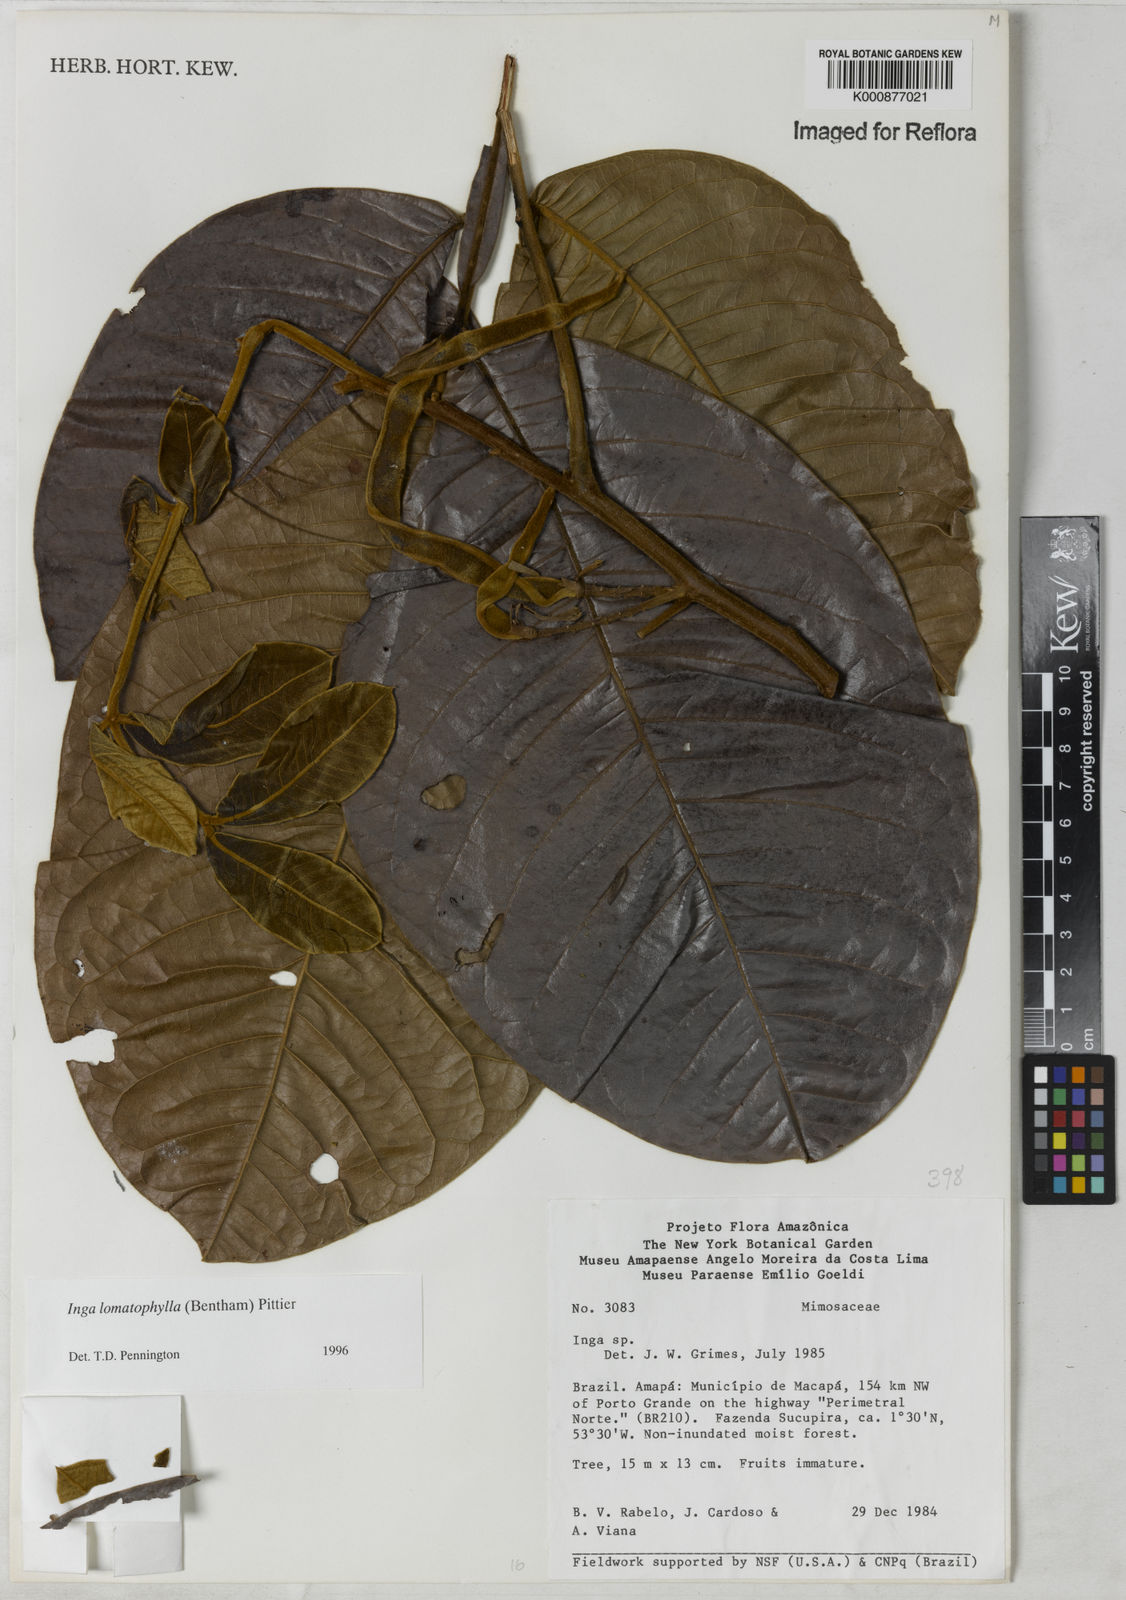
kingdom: Plantae
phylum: Tracheophyta
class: Magnoliopsida
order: Fabales
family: Fabaceae
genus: Inga
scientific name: Inga lomatophylla
